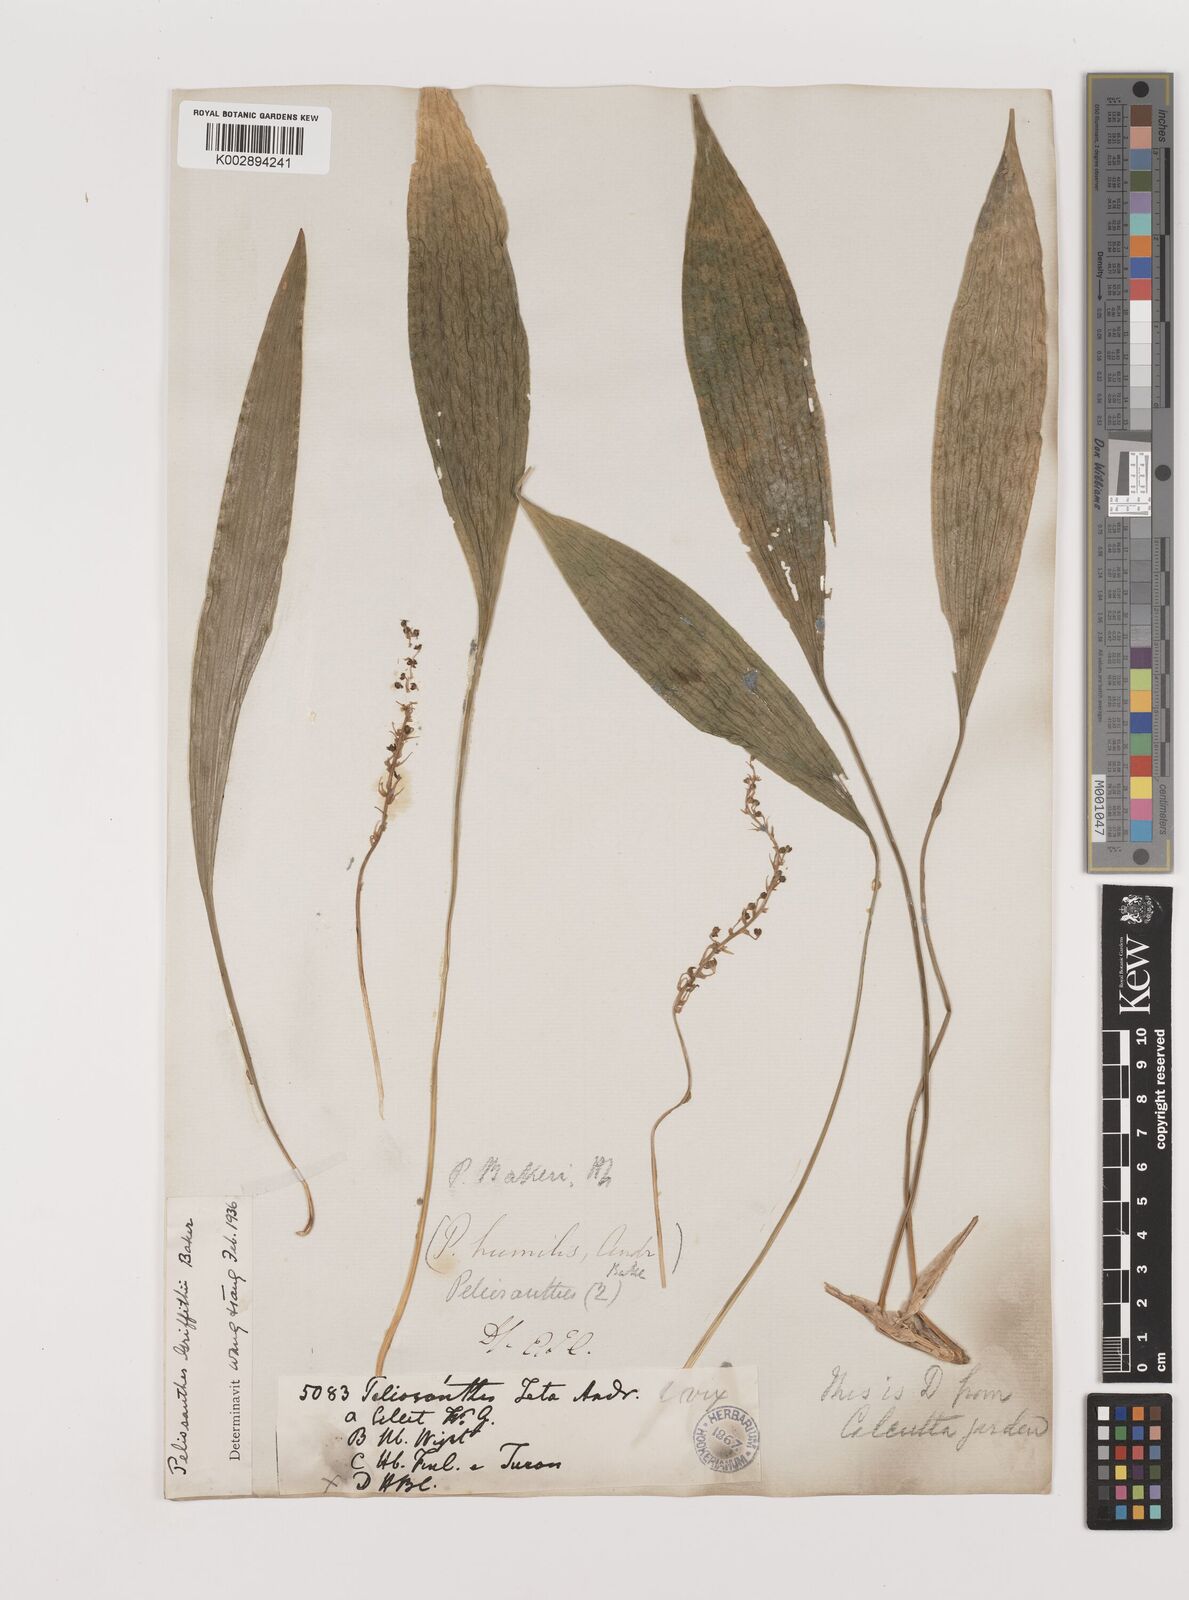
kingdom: Plantae
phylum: Tracheophyta
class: Liliopsida
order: Asparagales
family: Asparagaceae
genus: Peliosanthes
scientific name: Peliosanthes teta
